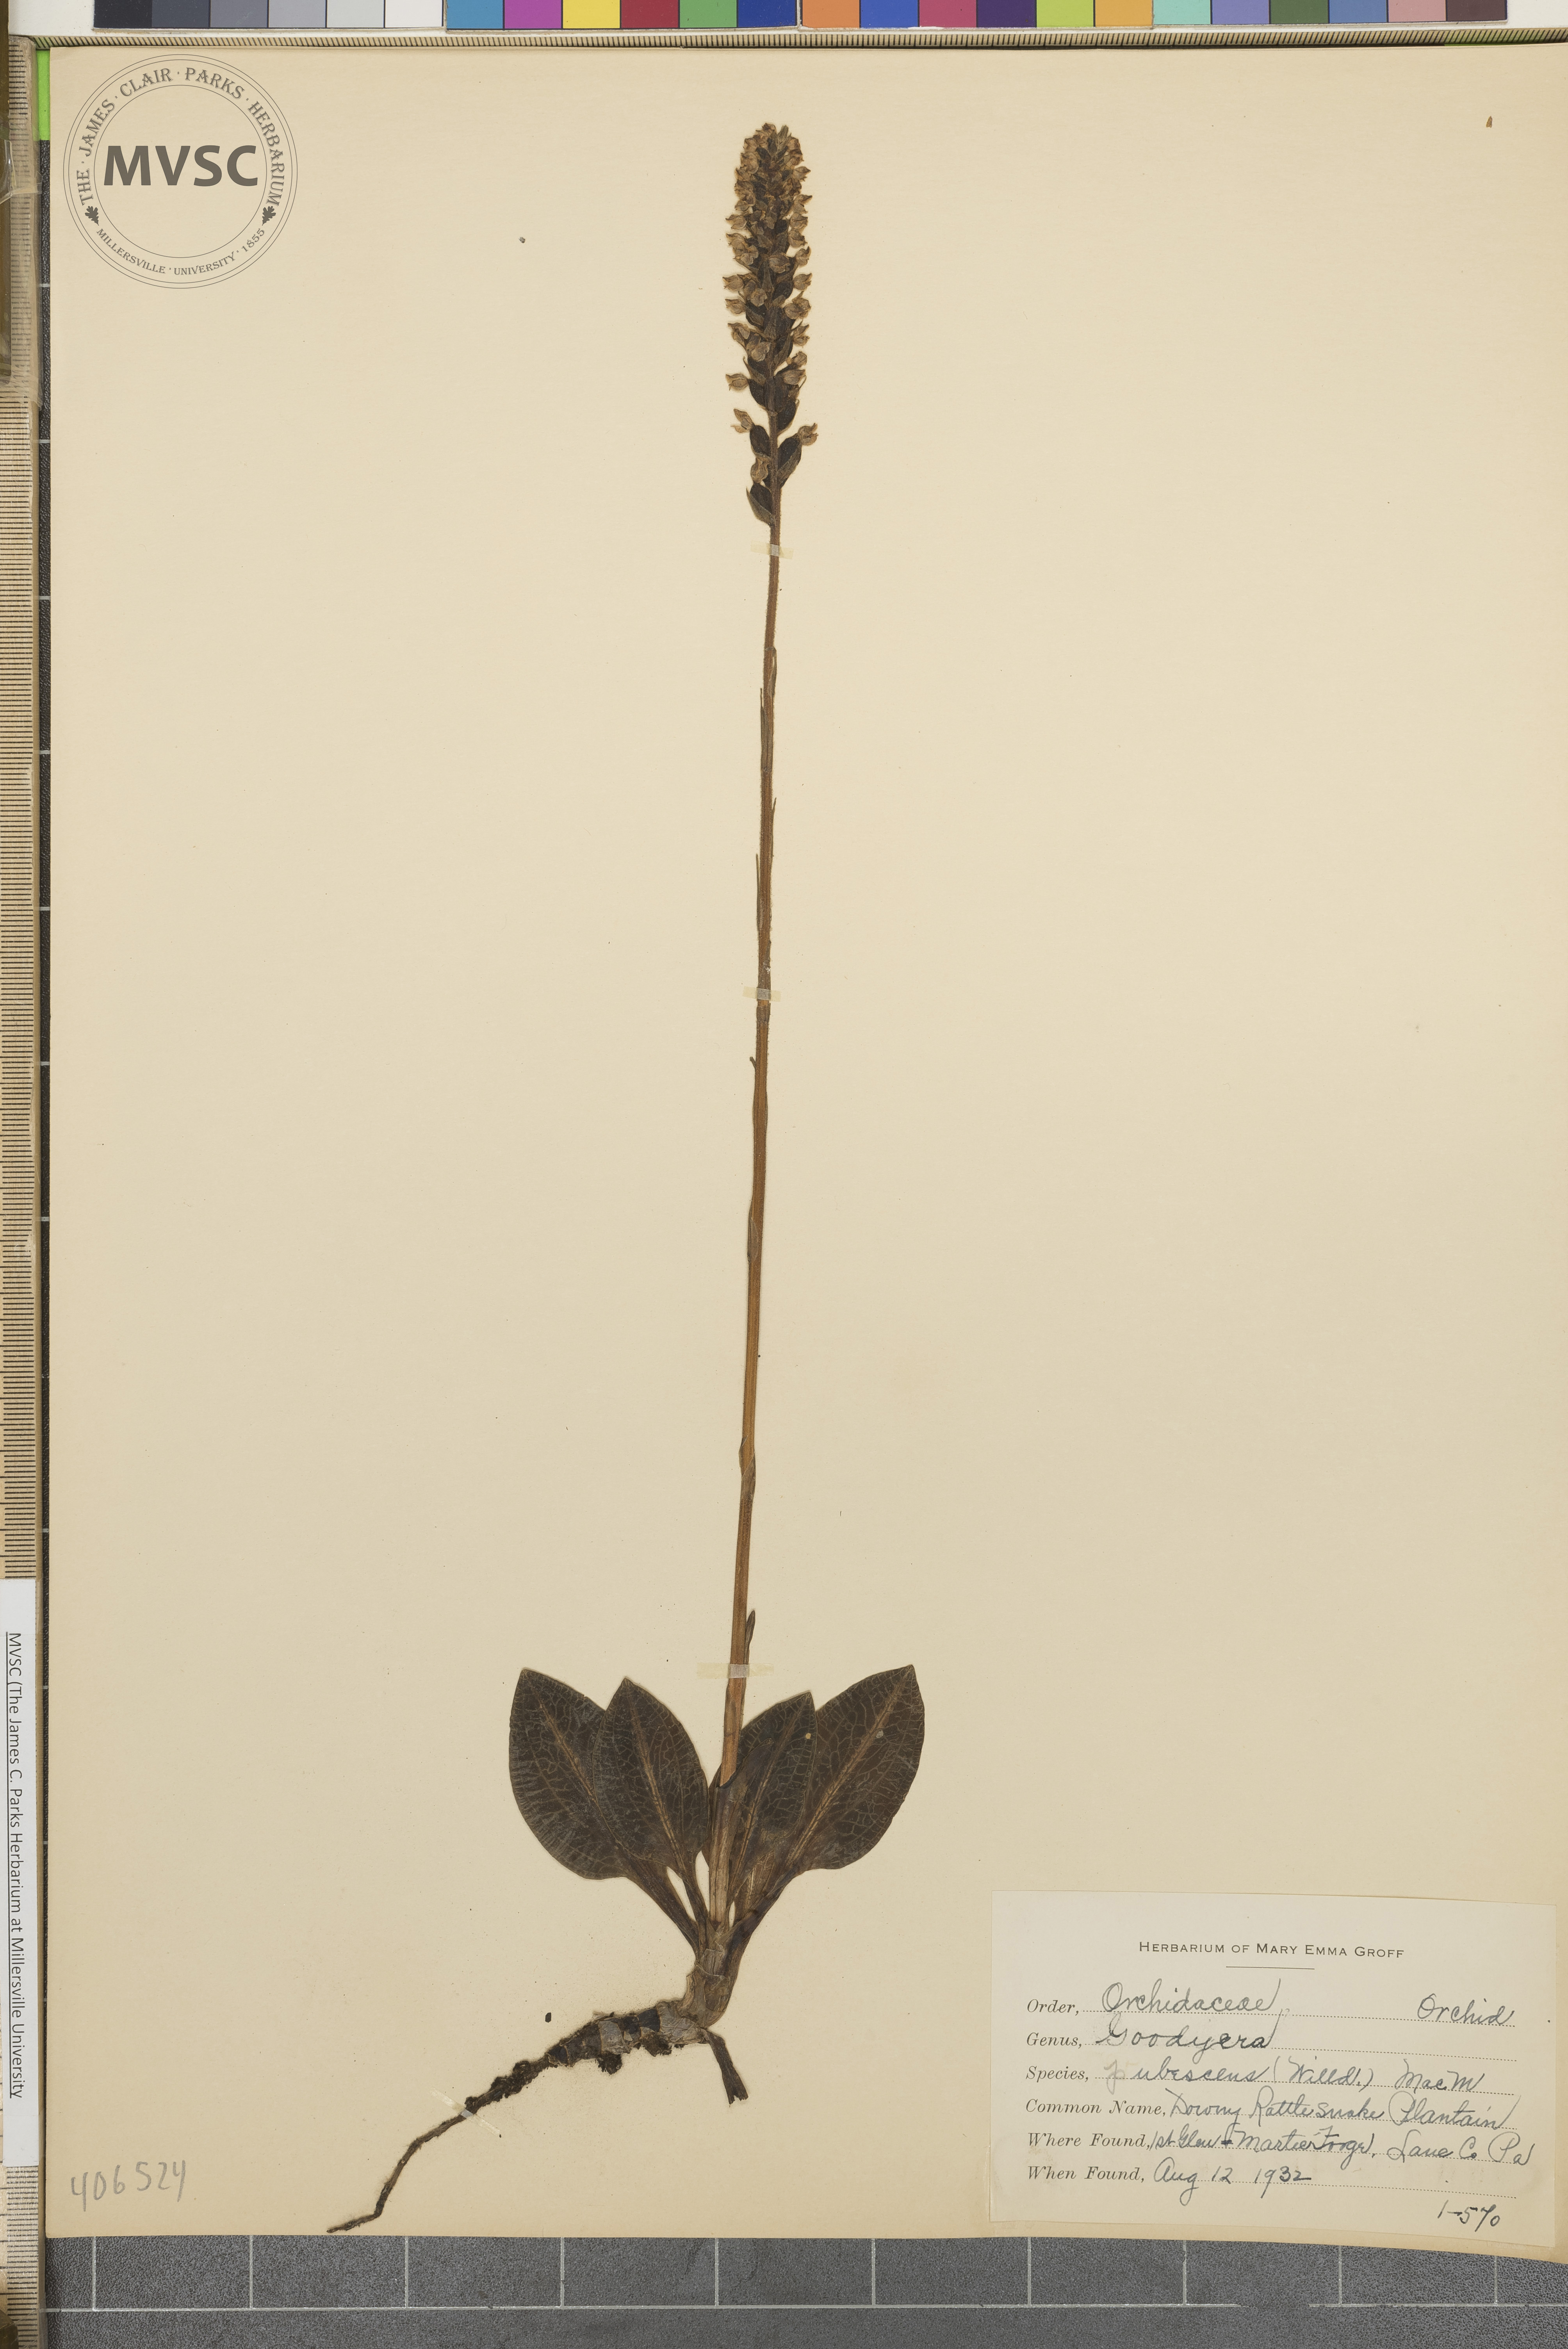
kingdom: Plantae
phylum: Tracheophyta
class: Liliopsida
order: Asparagales
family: Orchidaceae
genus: Goodyera
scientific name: Goodyera pubescens
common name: Downy Rattlesnake Plantain
